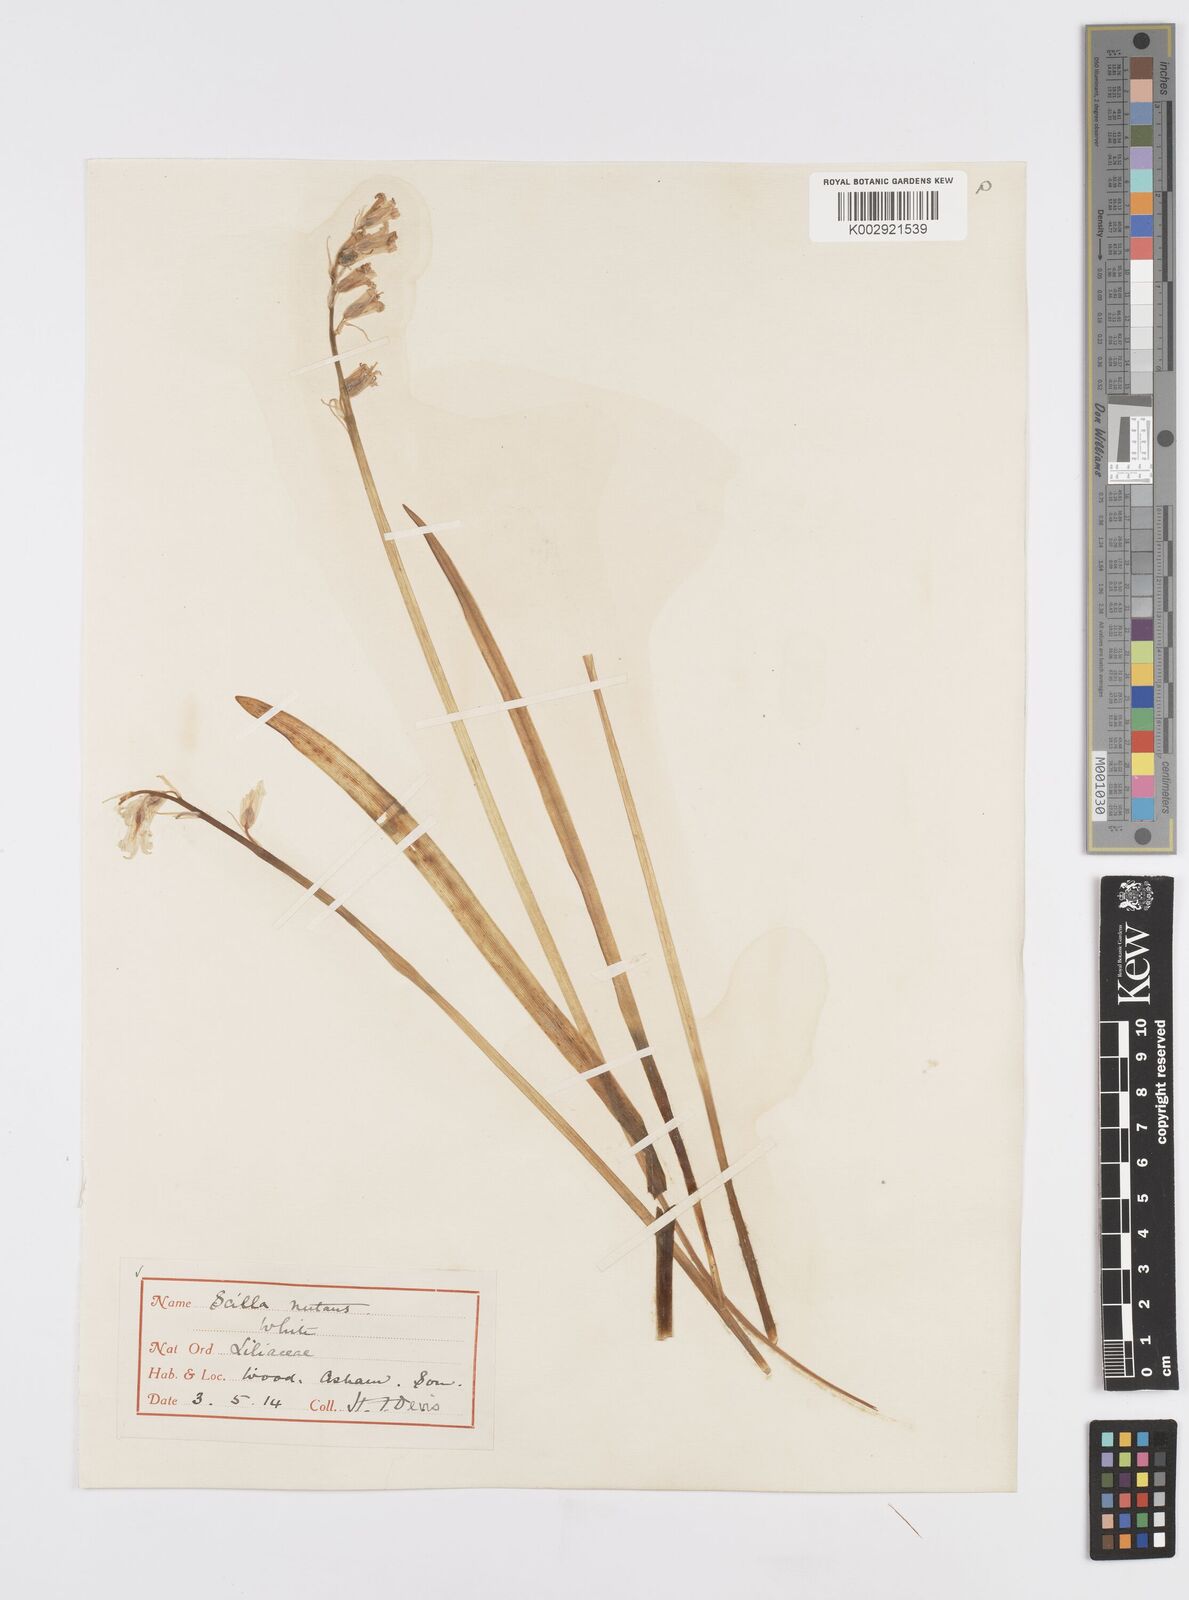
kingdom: Plantae
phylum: Tracheophyta
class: Liliopsida
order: Asparagales
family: Asparagaceae
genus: Hyacinthoides
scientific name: Hyacinthoides non-scripta
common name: Bluebell
